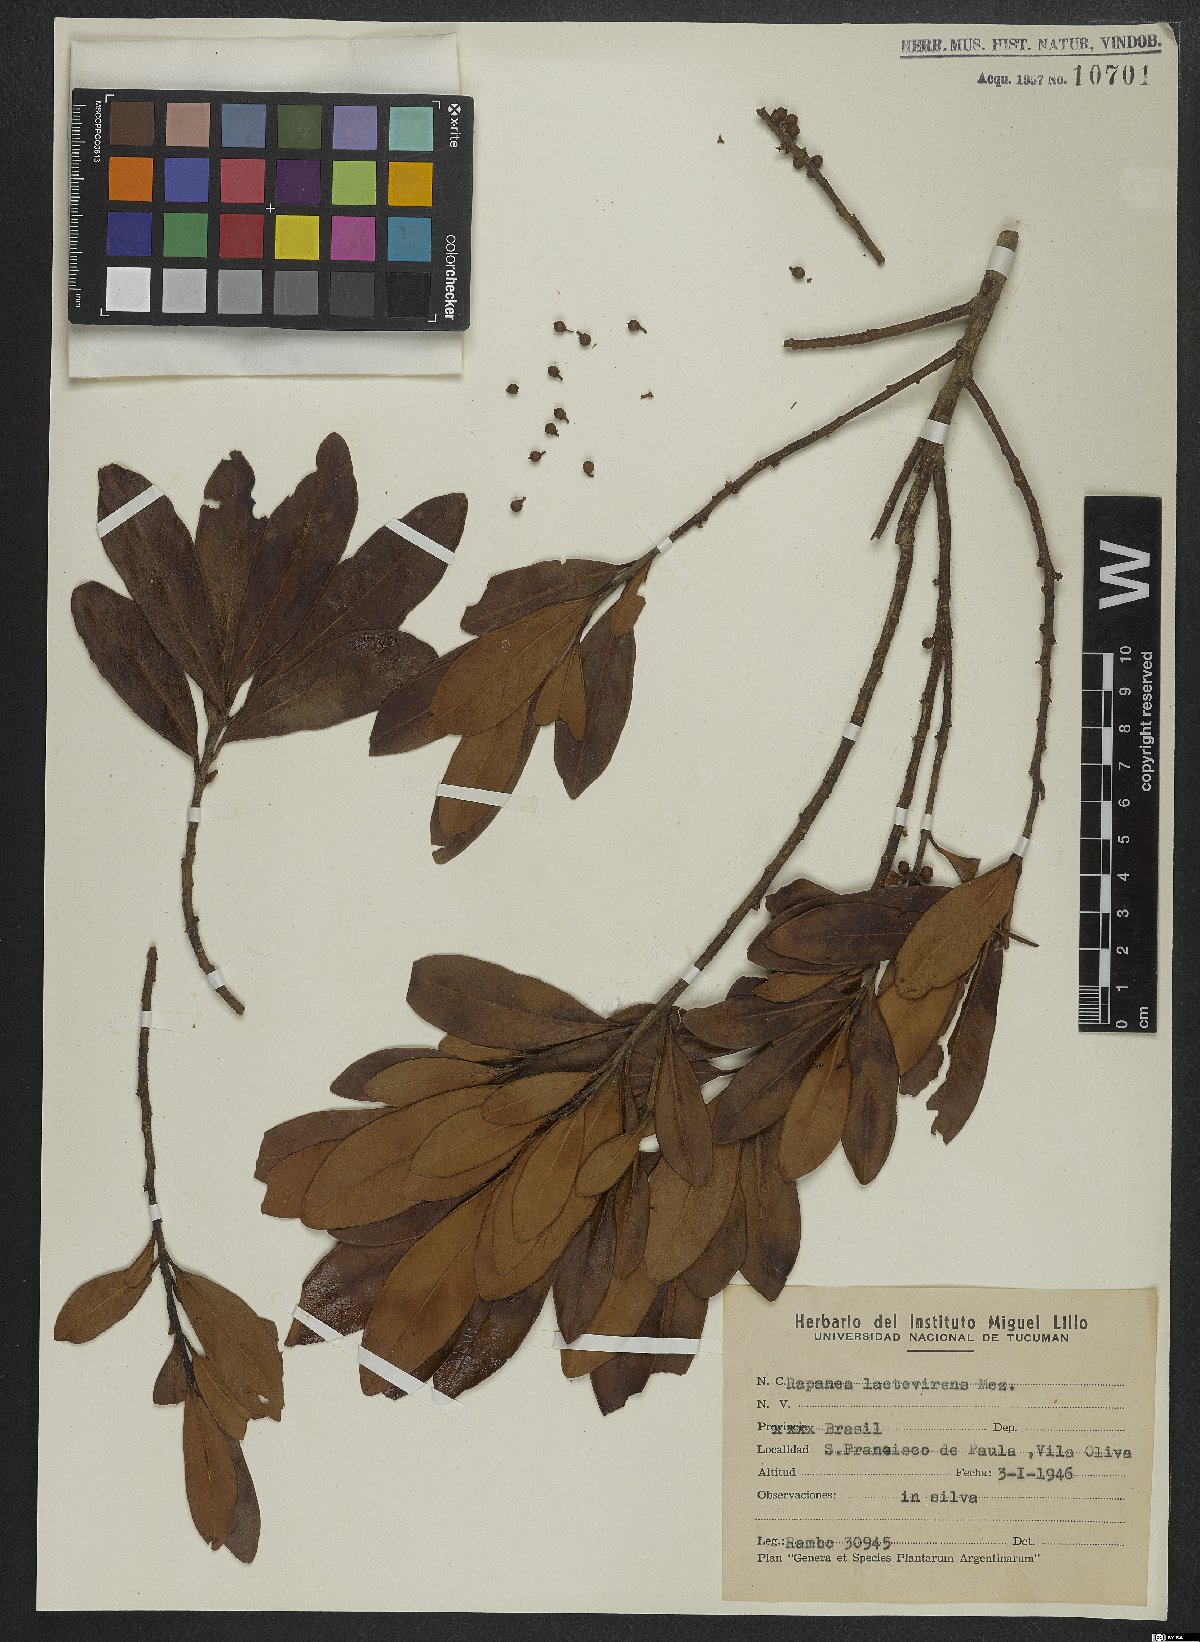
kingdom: Plantae
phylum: Tracheophyta
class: Magnoliopsida
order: Ericales
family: Primulaceae
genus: Myrsine
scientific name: Myrsine laetevirens
